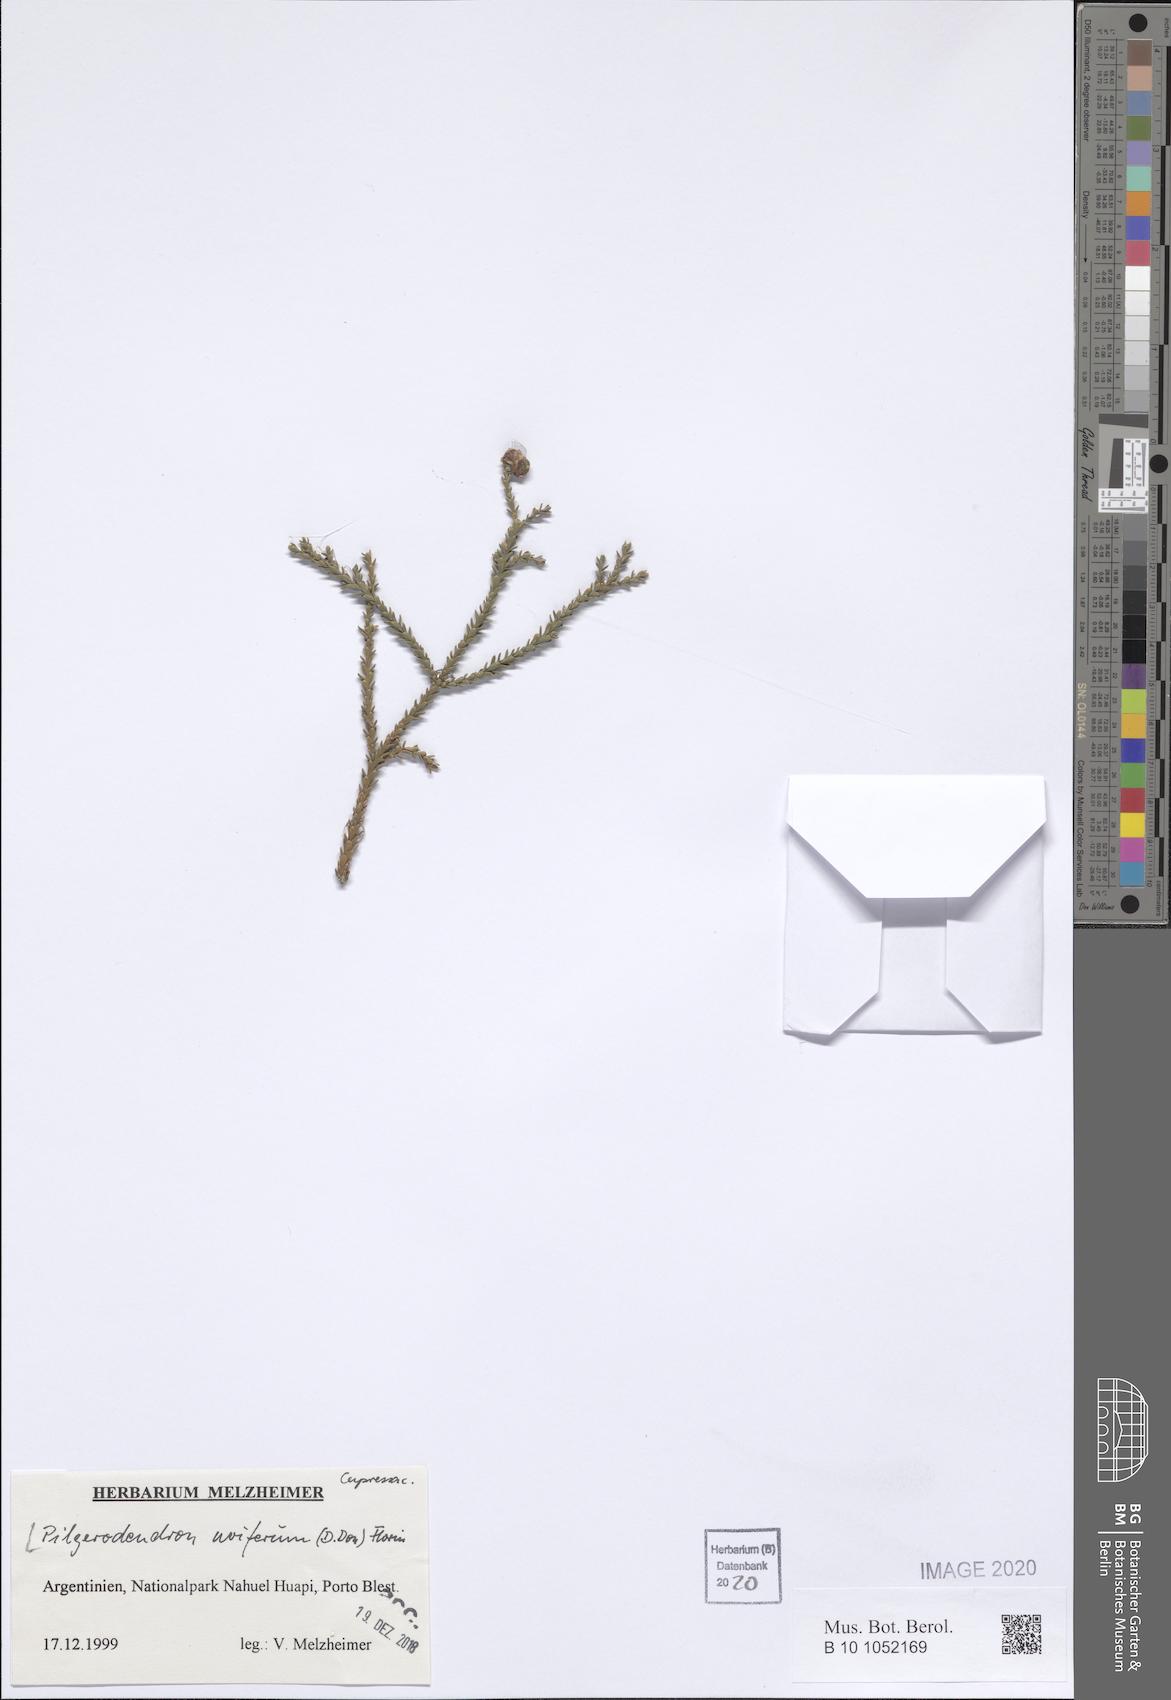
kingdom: Plantae
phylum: Tracheophyta
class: Pinopsida
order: Pinales
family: Cupressaceae
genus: Pilgerodendron
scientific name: Pilgerodendron uviferum
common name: Guaitecas cypress
